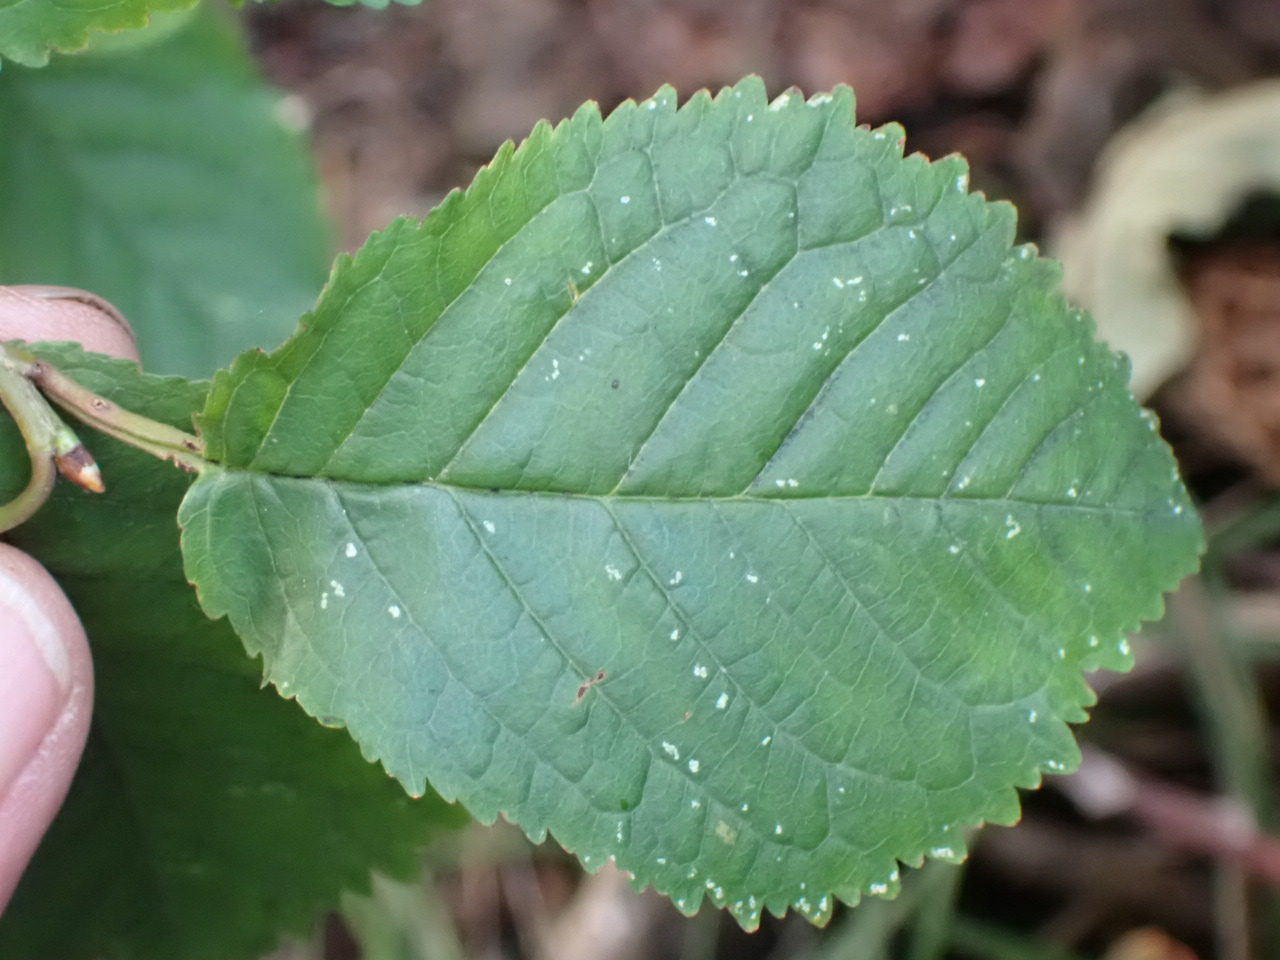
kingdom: Plantae
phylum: Tracheophyta
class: Magnoliopsida
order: Rosales
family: Rosaceae
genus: Prunus
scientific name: Prunus avium
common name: Fugle-kirsebær
